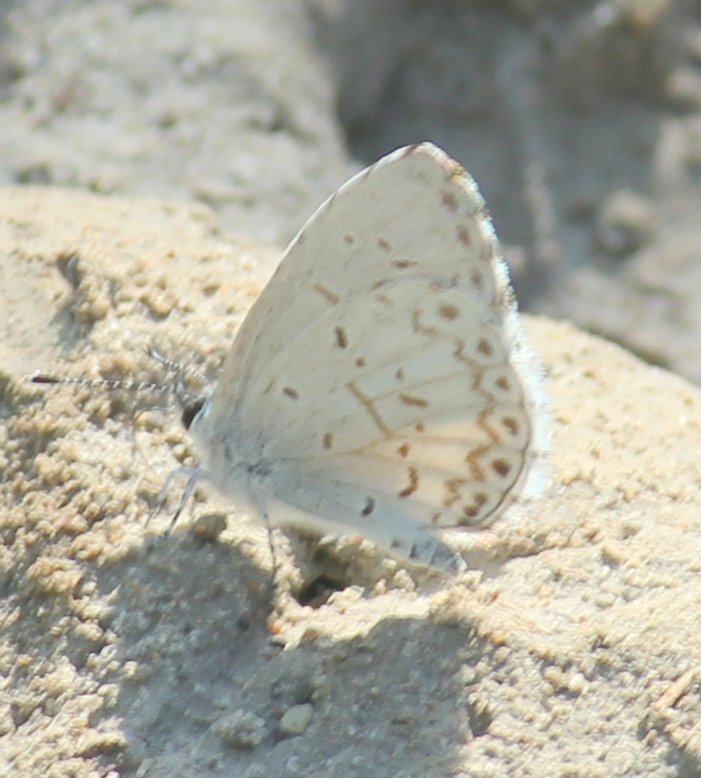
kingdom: Animalia
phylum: Arthropoda
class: Insecta
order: Lepidoptera
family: Lycaenidae
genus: Celastrina
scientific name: Celastrina
